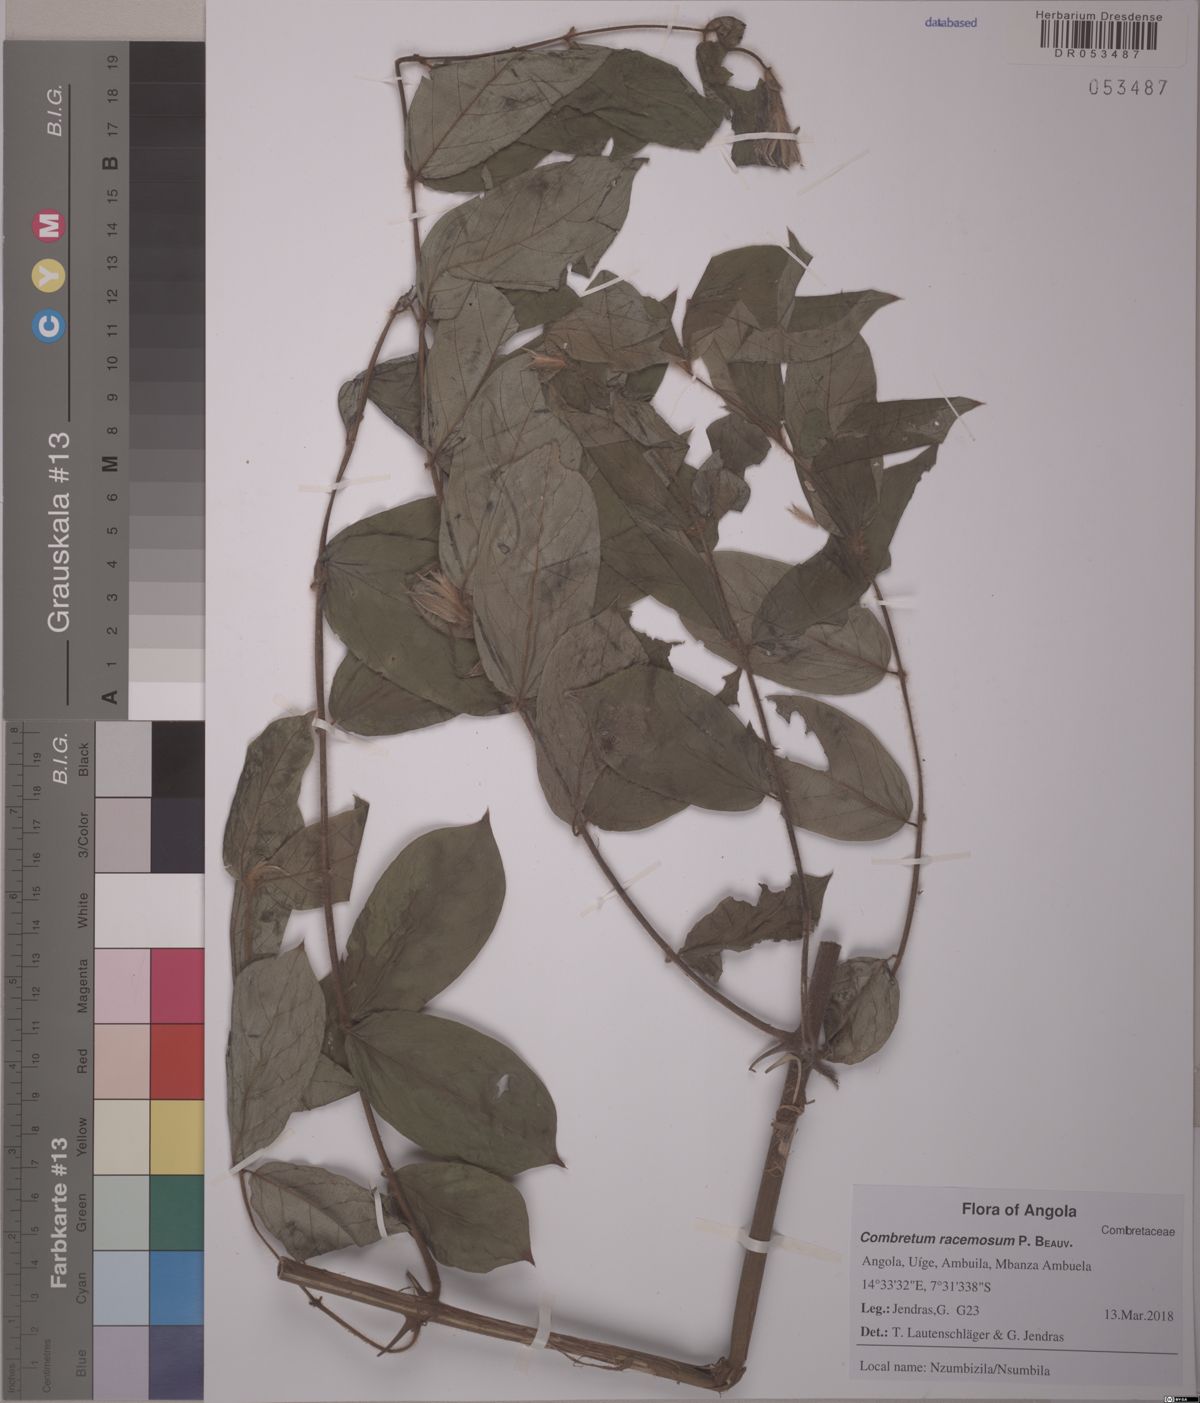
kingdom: Plantae
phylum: Tracheophyta
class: Magnoliopsida
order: Myrtales
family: Combretaceae
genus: Combretum
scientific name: Combretum racemosum
